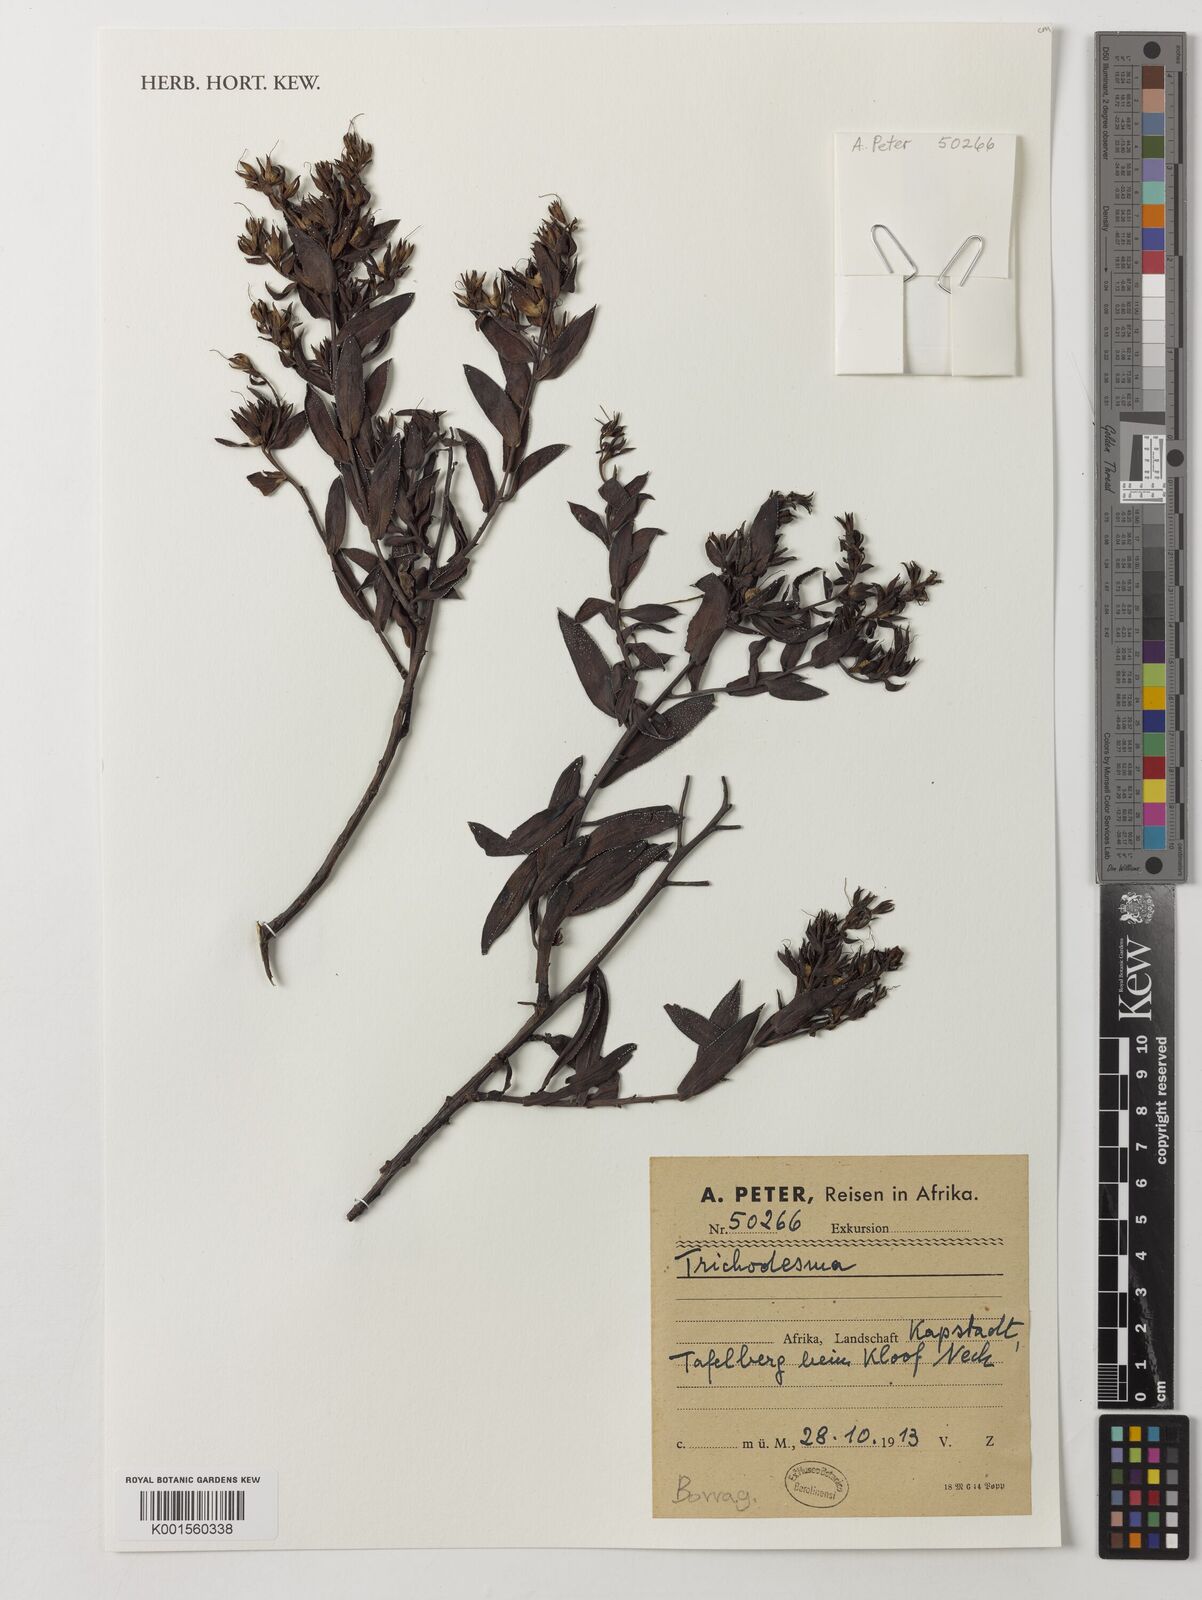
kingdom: Plantae
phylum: Tracheophyta
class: Magnoliopsida
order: Boraginales
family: Boraginaceae
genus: Trichodesma
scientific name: Trichodesma
